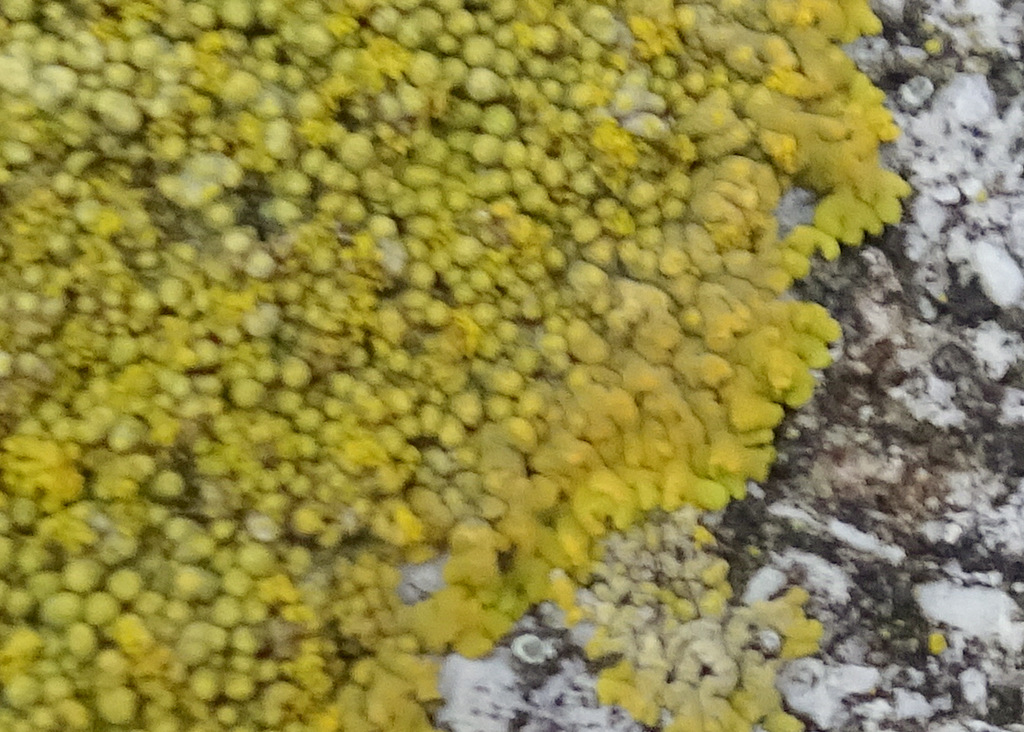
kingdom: Fungi
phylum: Ascomycota
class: Lecanoromycetes
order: Teloschistales
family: Teloschistaceae
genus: Calogaya
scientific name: Calogaya decipiens
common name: knudret orangelav
